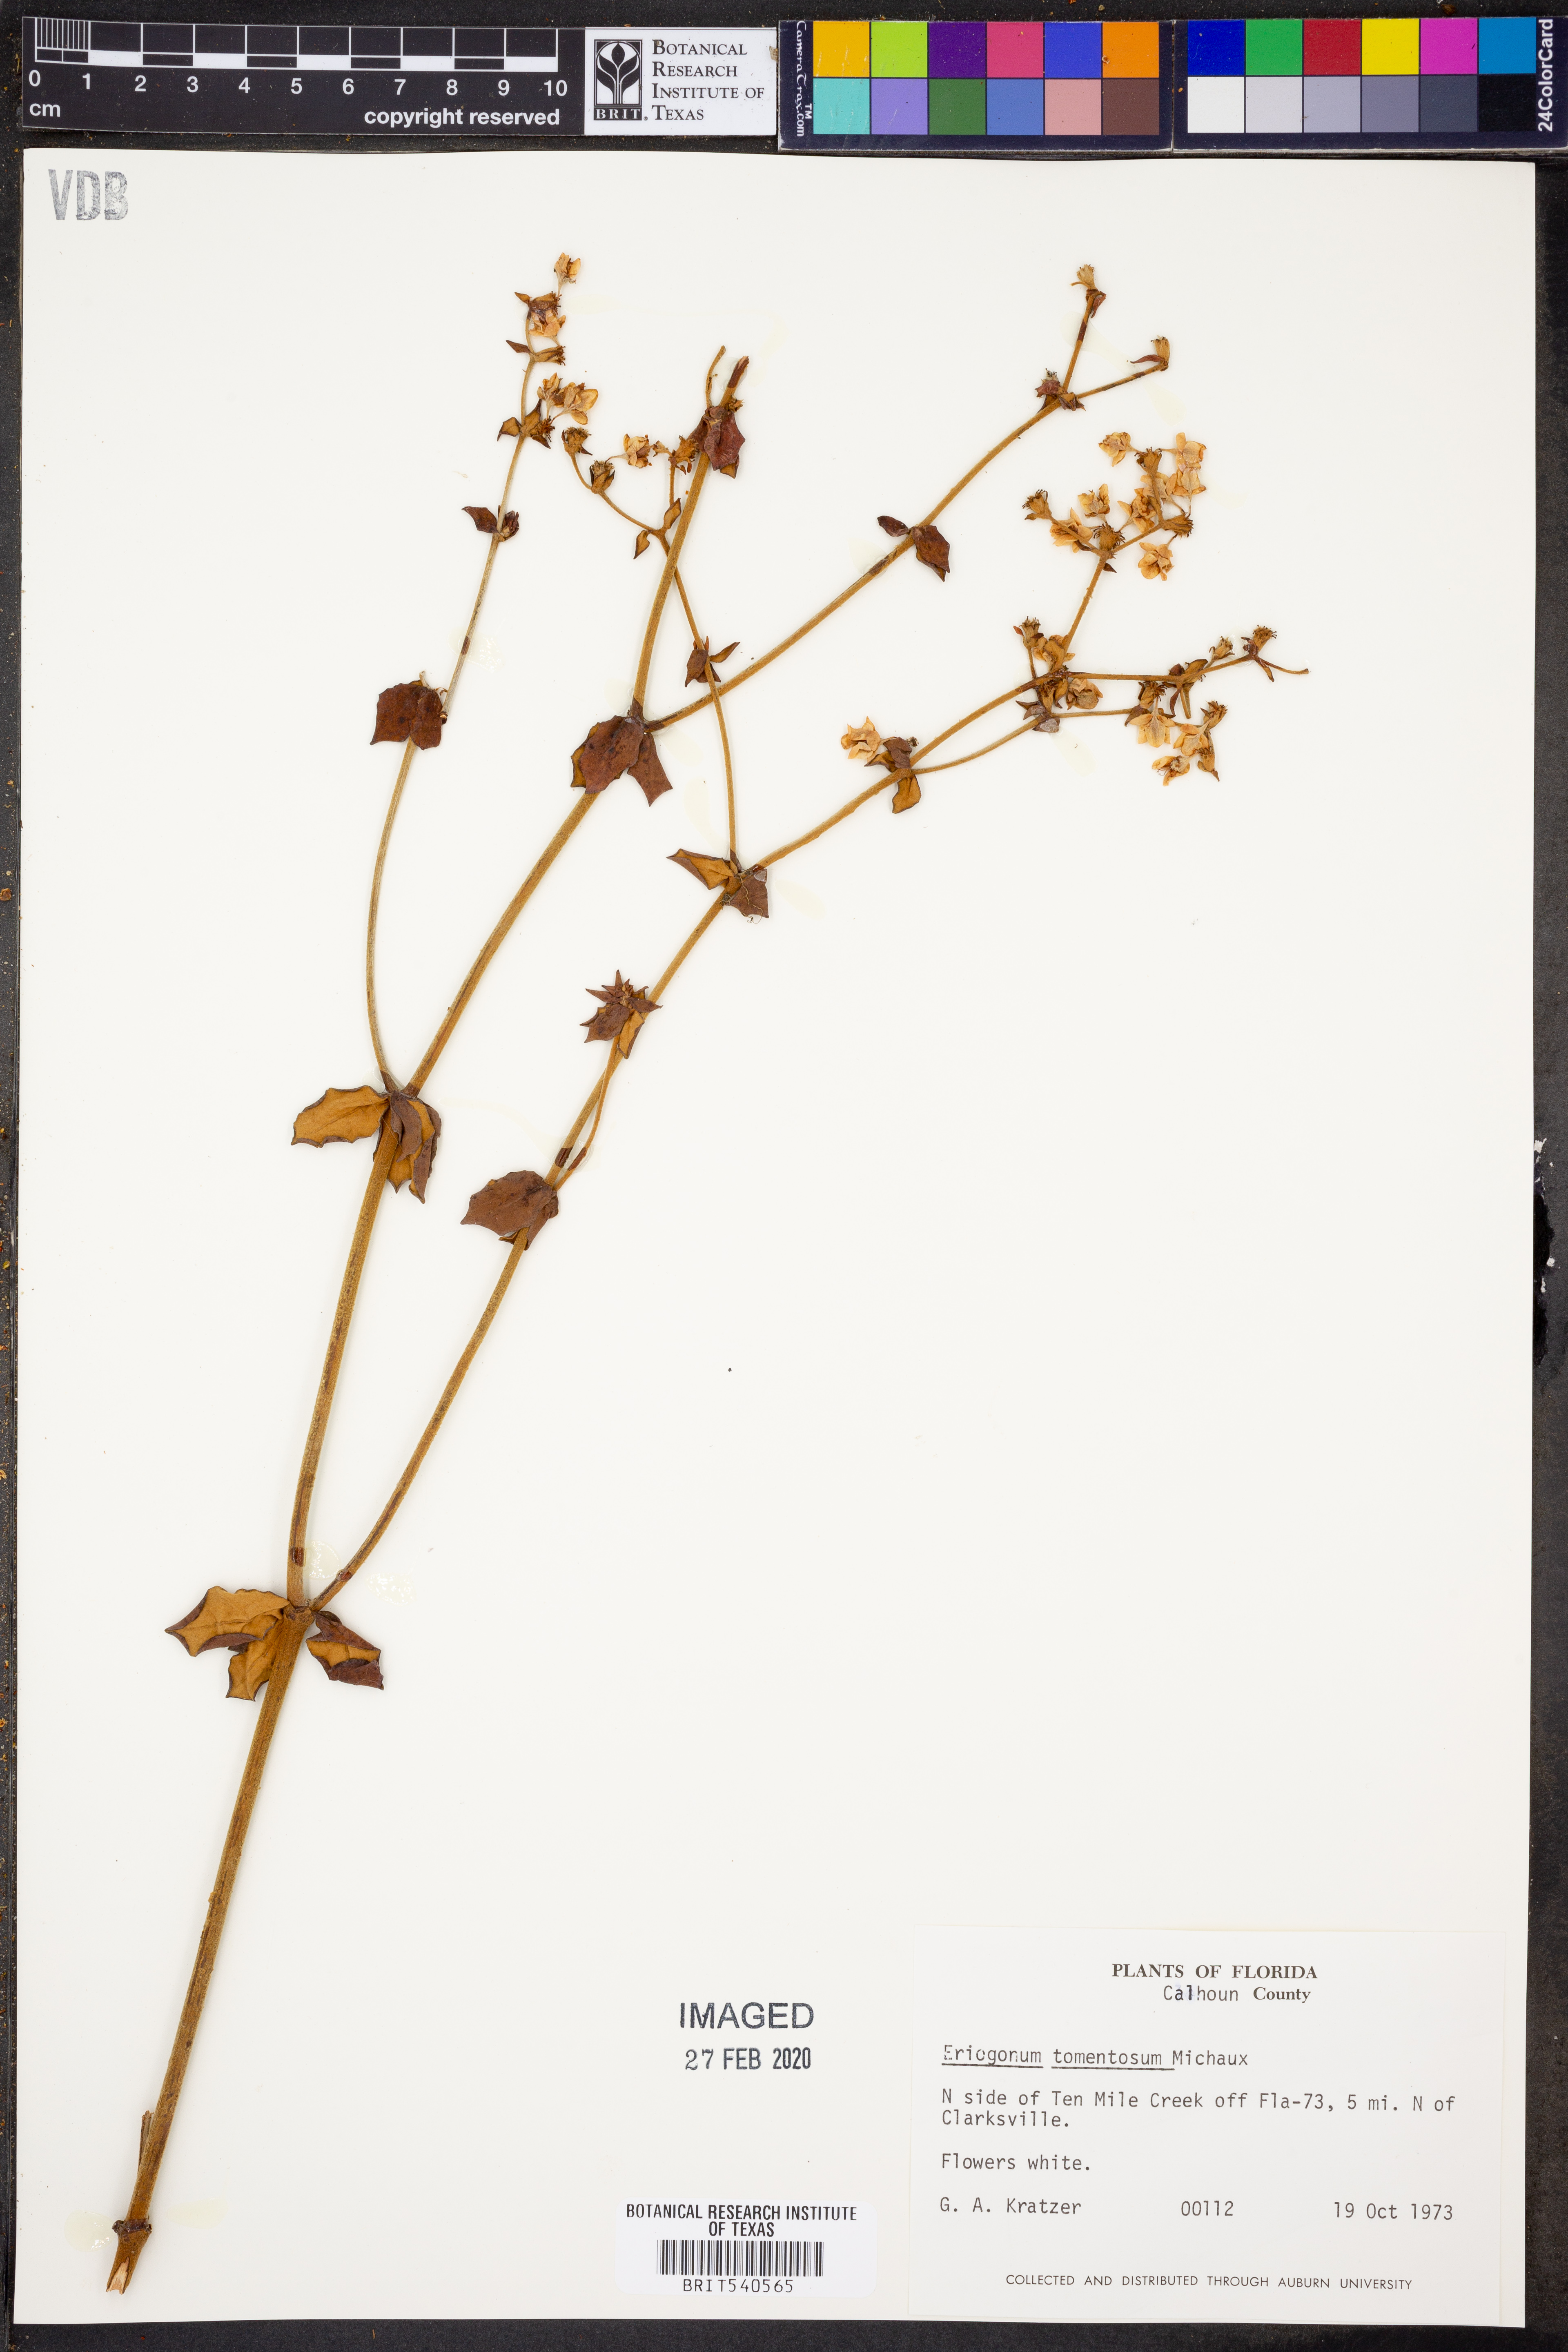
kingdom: Plantae
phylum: Tracheophyta
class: Magnoliopsida
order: Caryophyllales
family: Polygonaceae
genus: Eriogonum
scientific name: Eriogonum tomentosum
